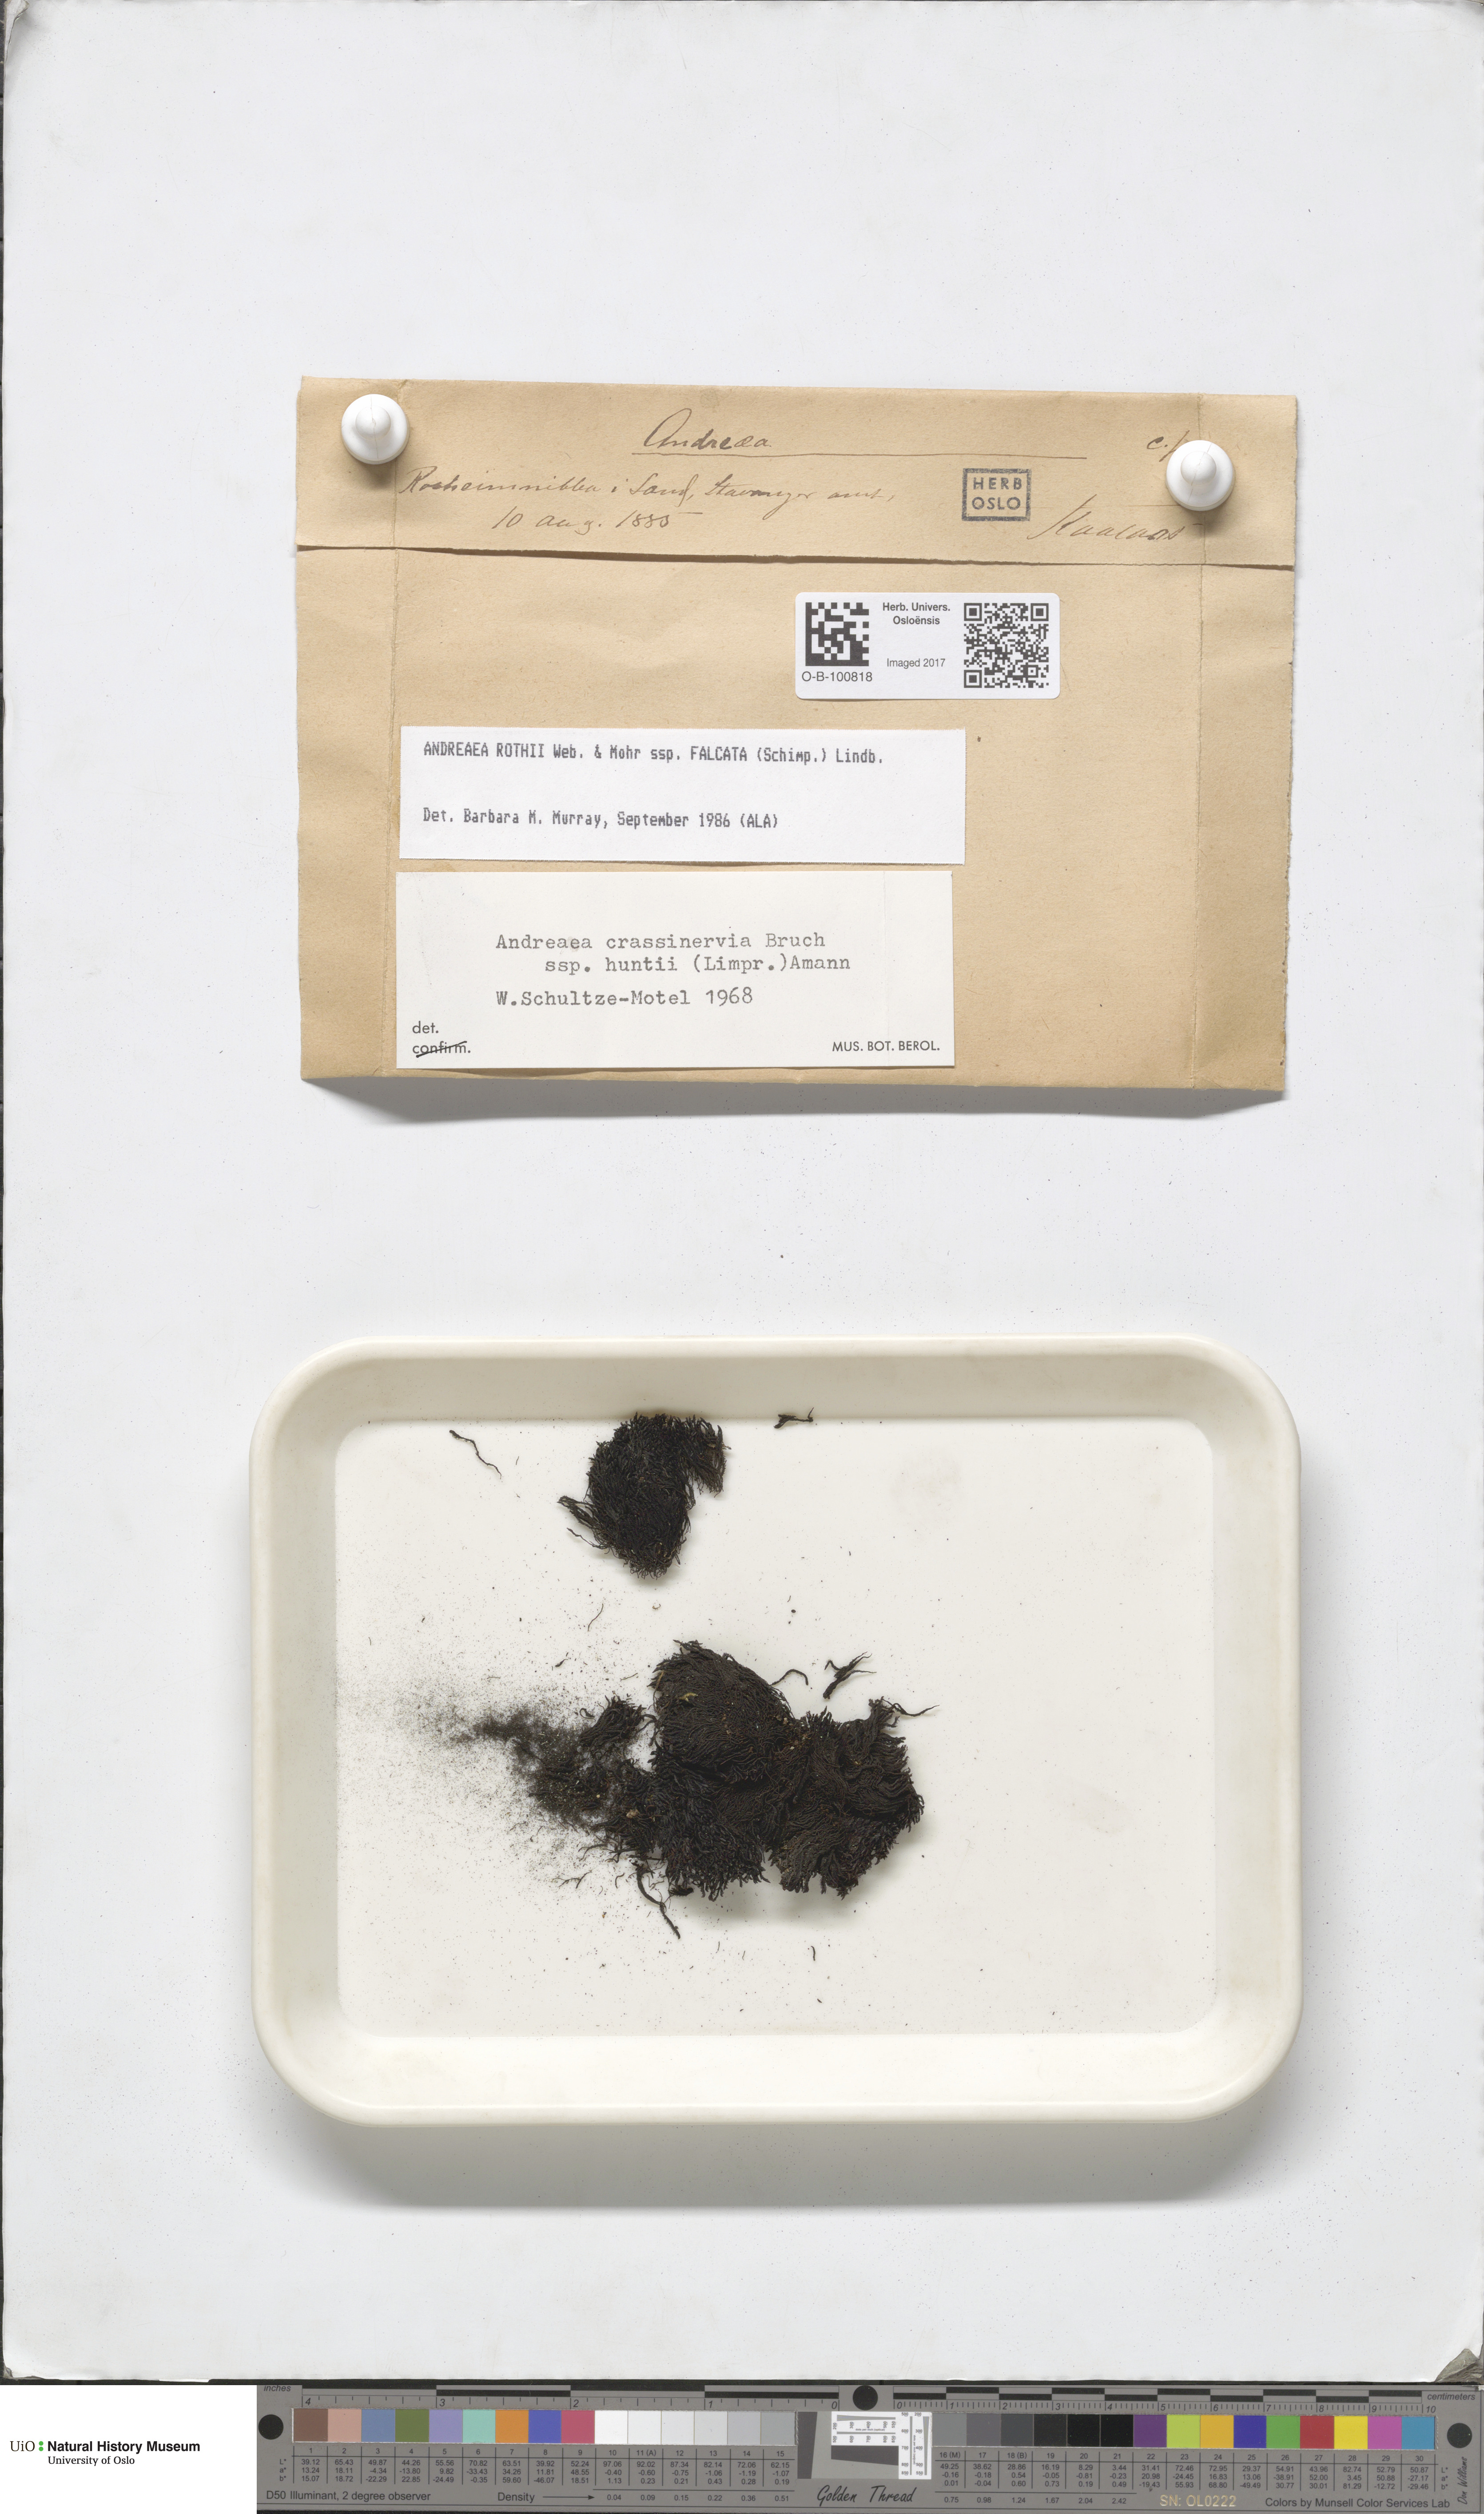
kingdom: Plantae
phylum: Bryophyta
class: Andreaeopsida
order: Andreaeales
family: Andreaeaceae
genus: Andreaea
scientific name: Andreaea rothii
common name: Dusky rock moss
